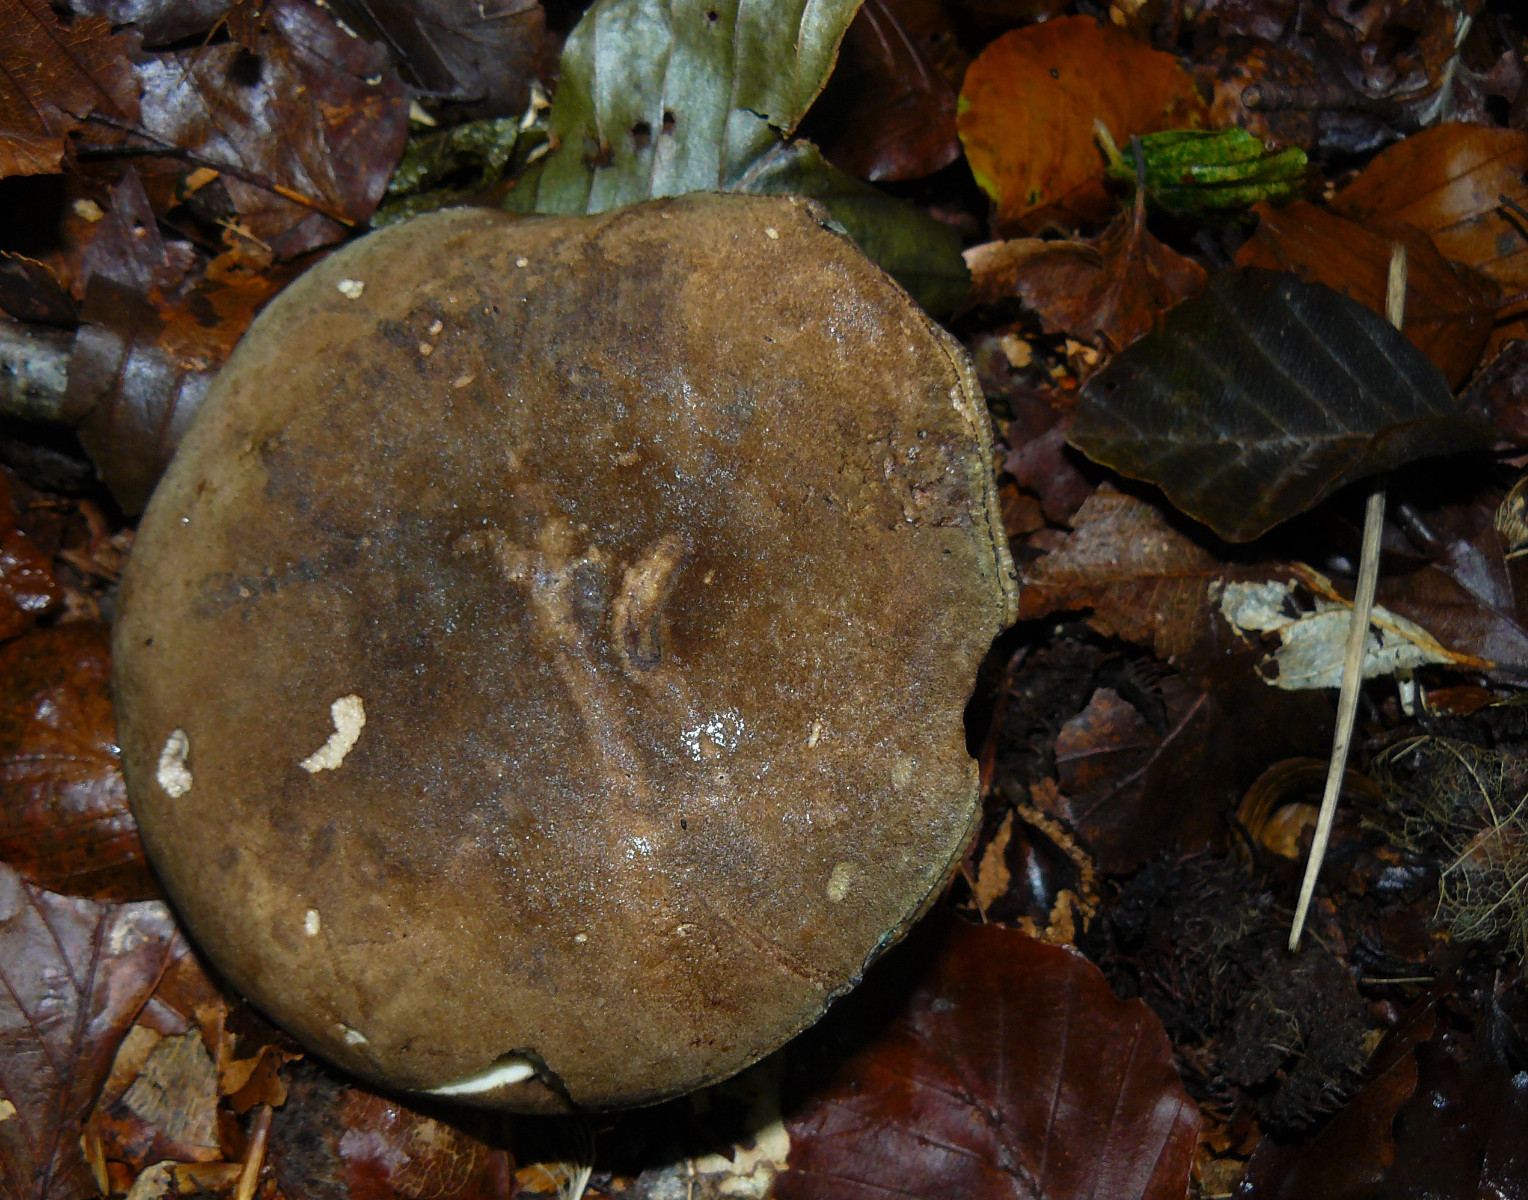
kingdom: Fungi
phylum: Basidiomycota
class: Agaricomycetes
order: Boletales
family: Boletaceae
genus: Porphyrellus
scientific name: Porphyrellus
